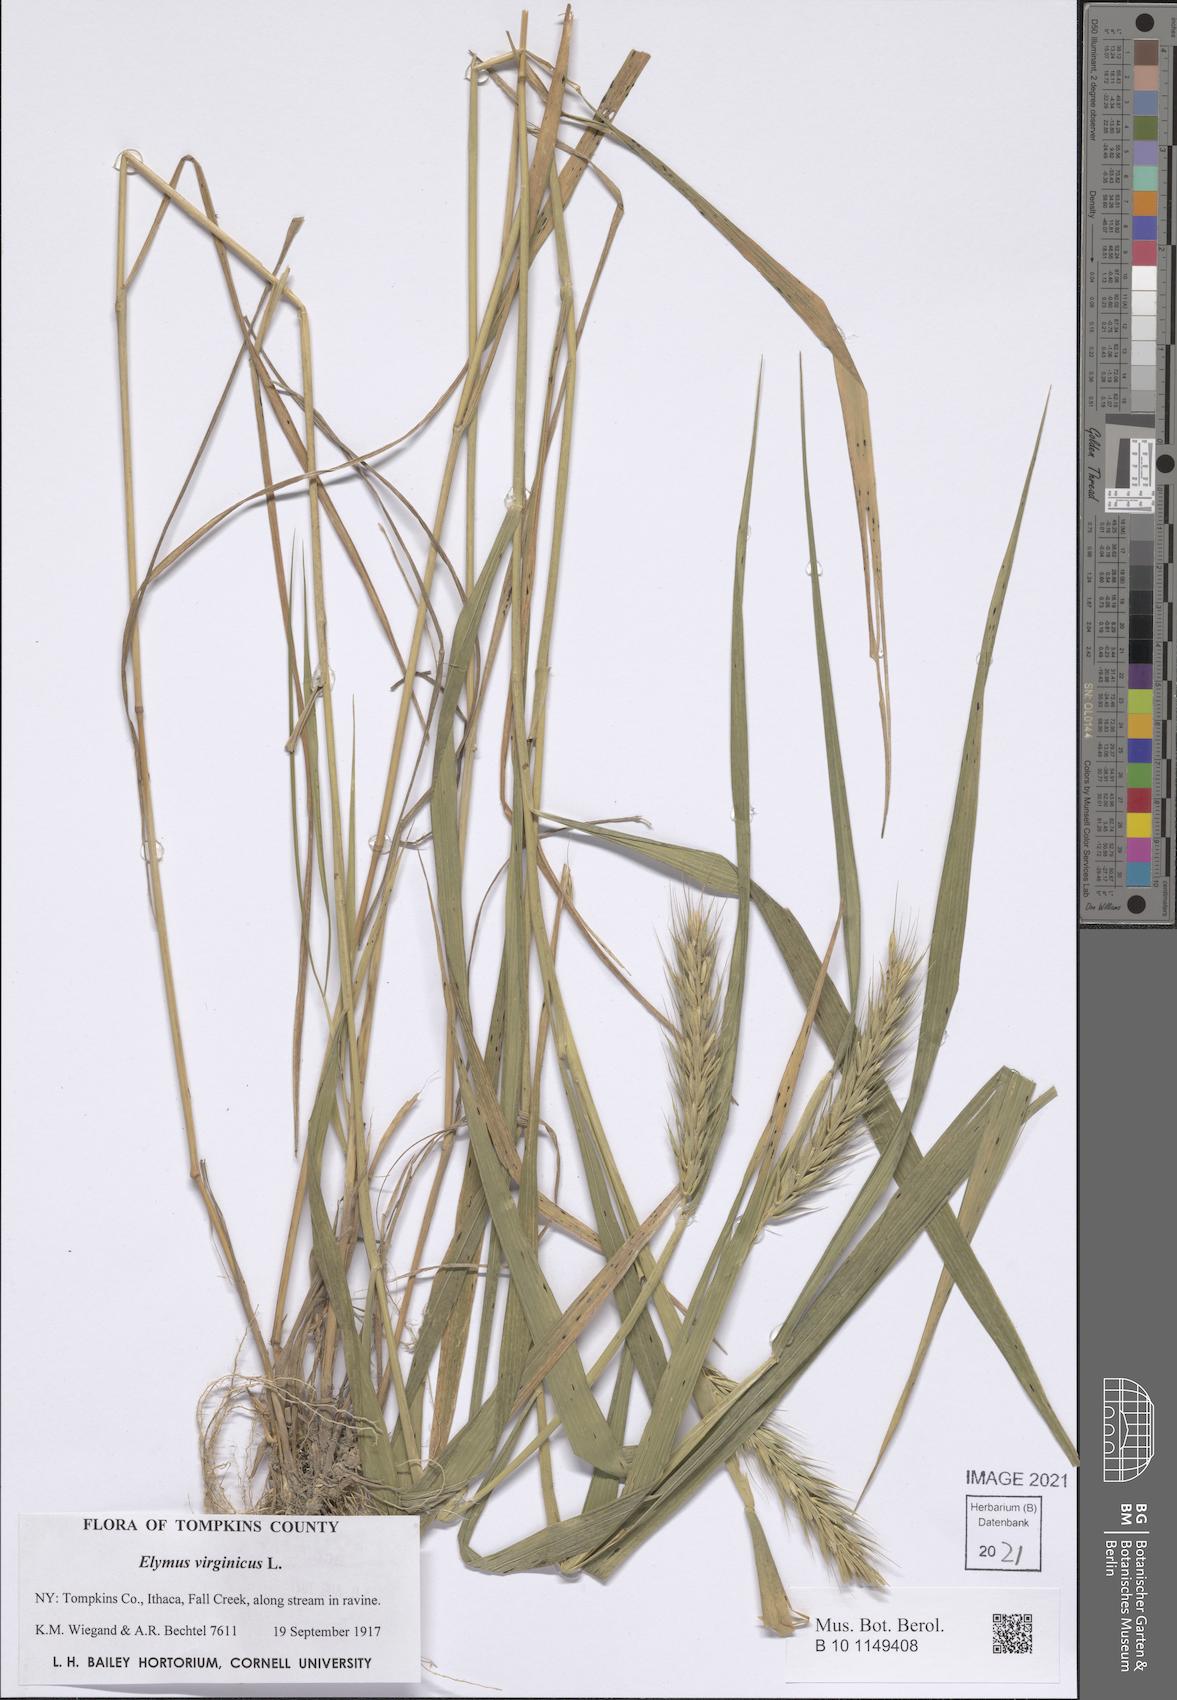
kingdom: Plantae
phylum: Tracheophyta
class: Liliopsida
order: Poales
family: Poaceae
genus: Elymus
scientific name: Elymus virginicus
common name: Common eastern wildrye
